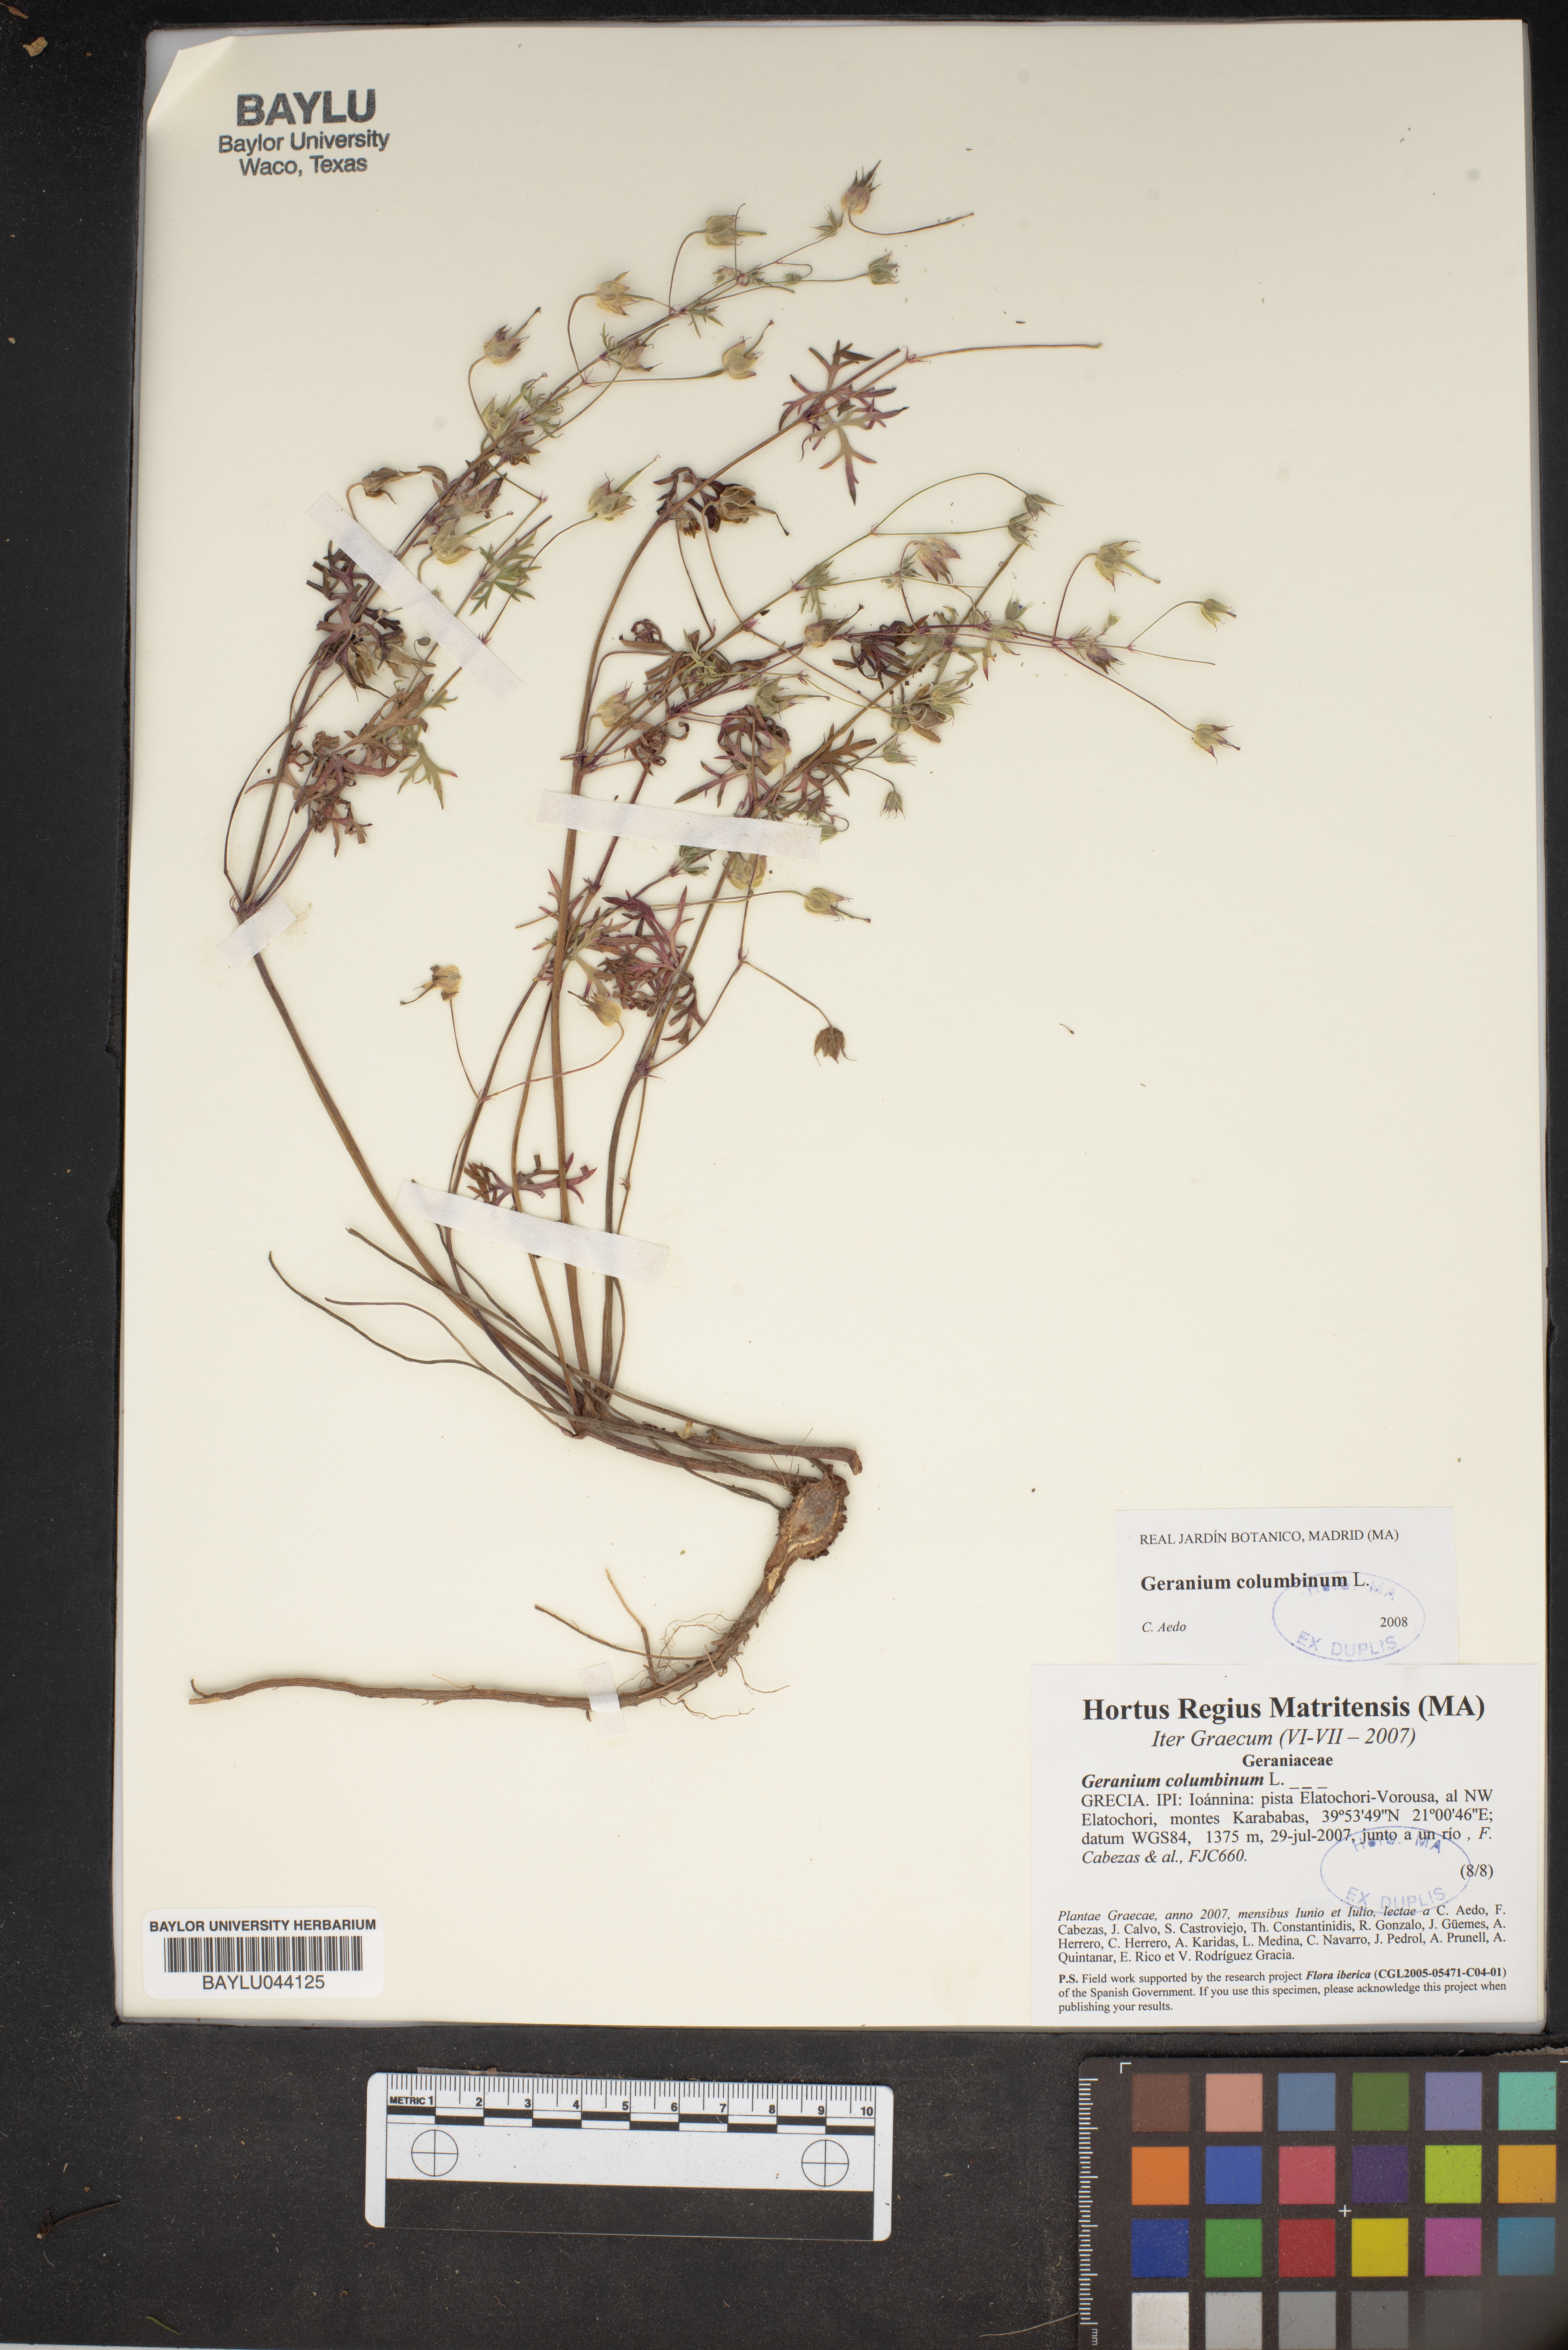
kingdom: Plantae
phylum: Tracheophyta
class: Magnoliopsida
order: Geraniales
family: Geraniaceae
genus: Geranium
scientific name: Geranium columbinum
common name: Long-stalked crane's-bill
